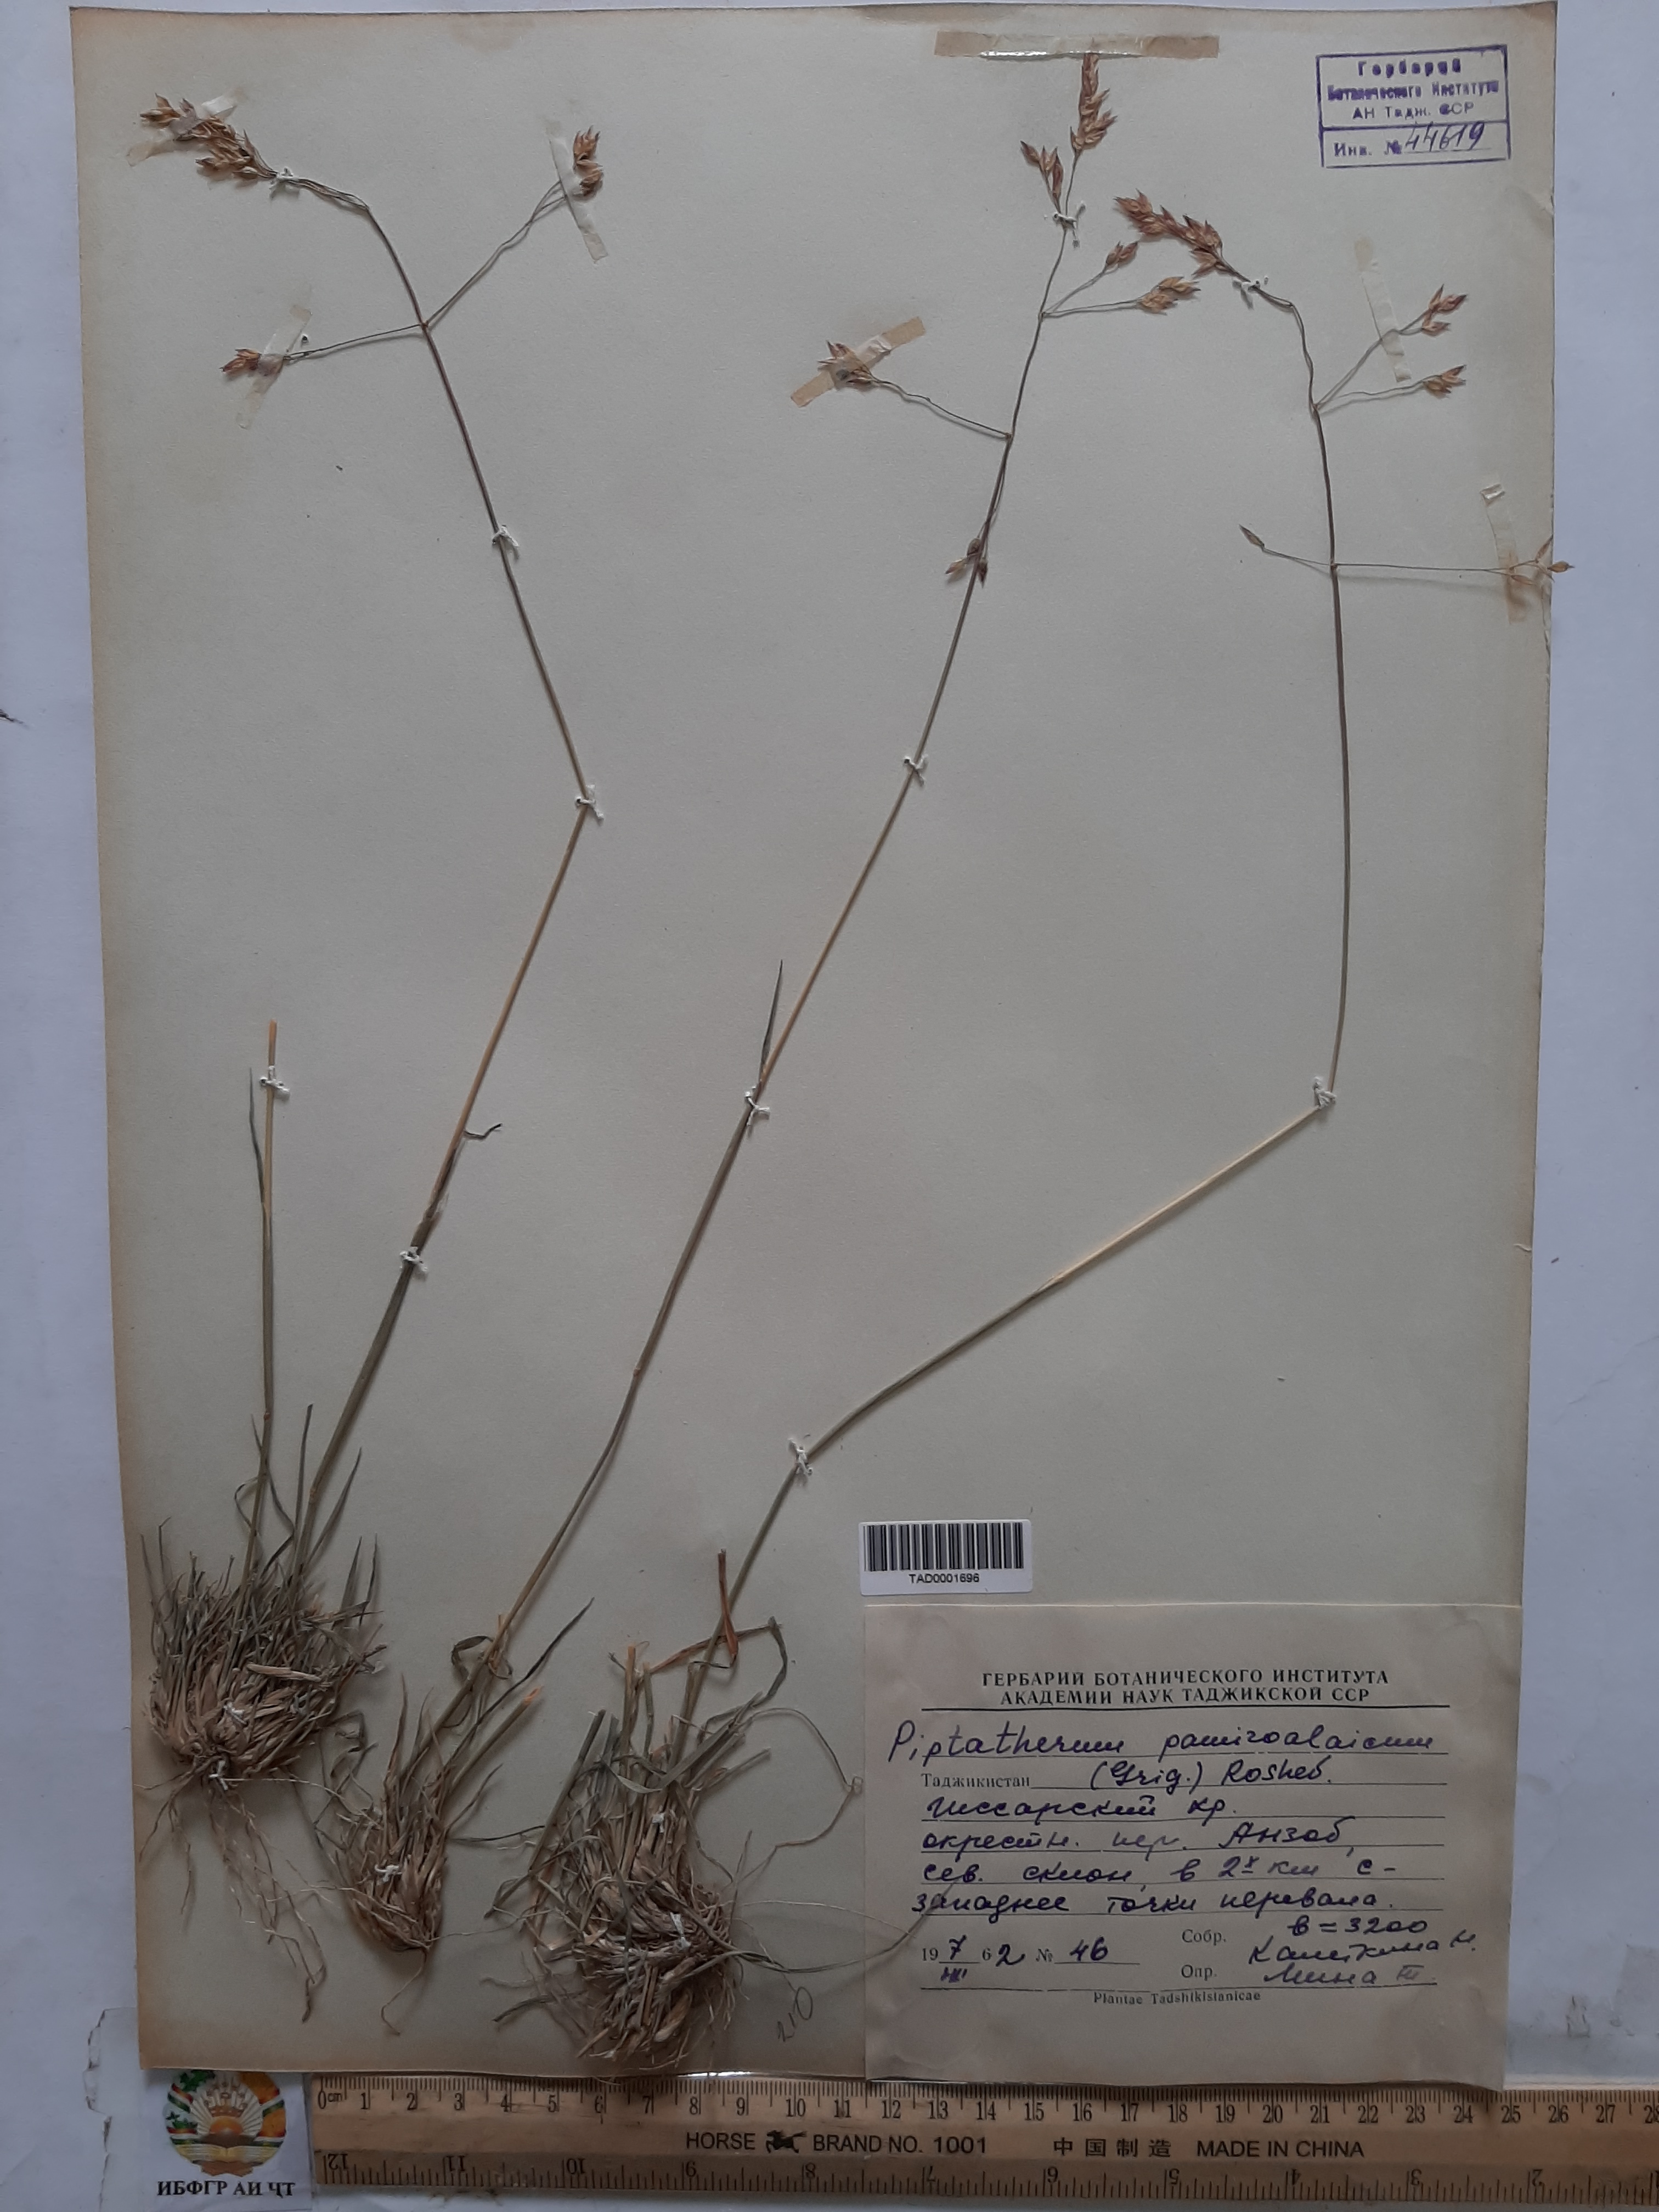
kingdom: Plantae
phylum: Tracheophyta
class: Liliopsida
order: Poales
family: Poaceae
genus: Piptatherum
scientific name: Piptatherum pamiralaicum
